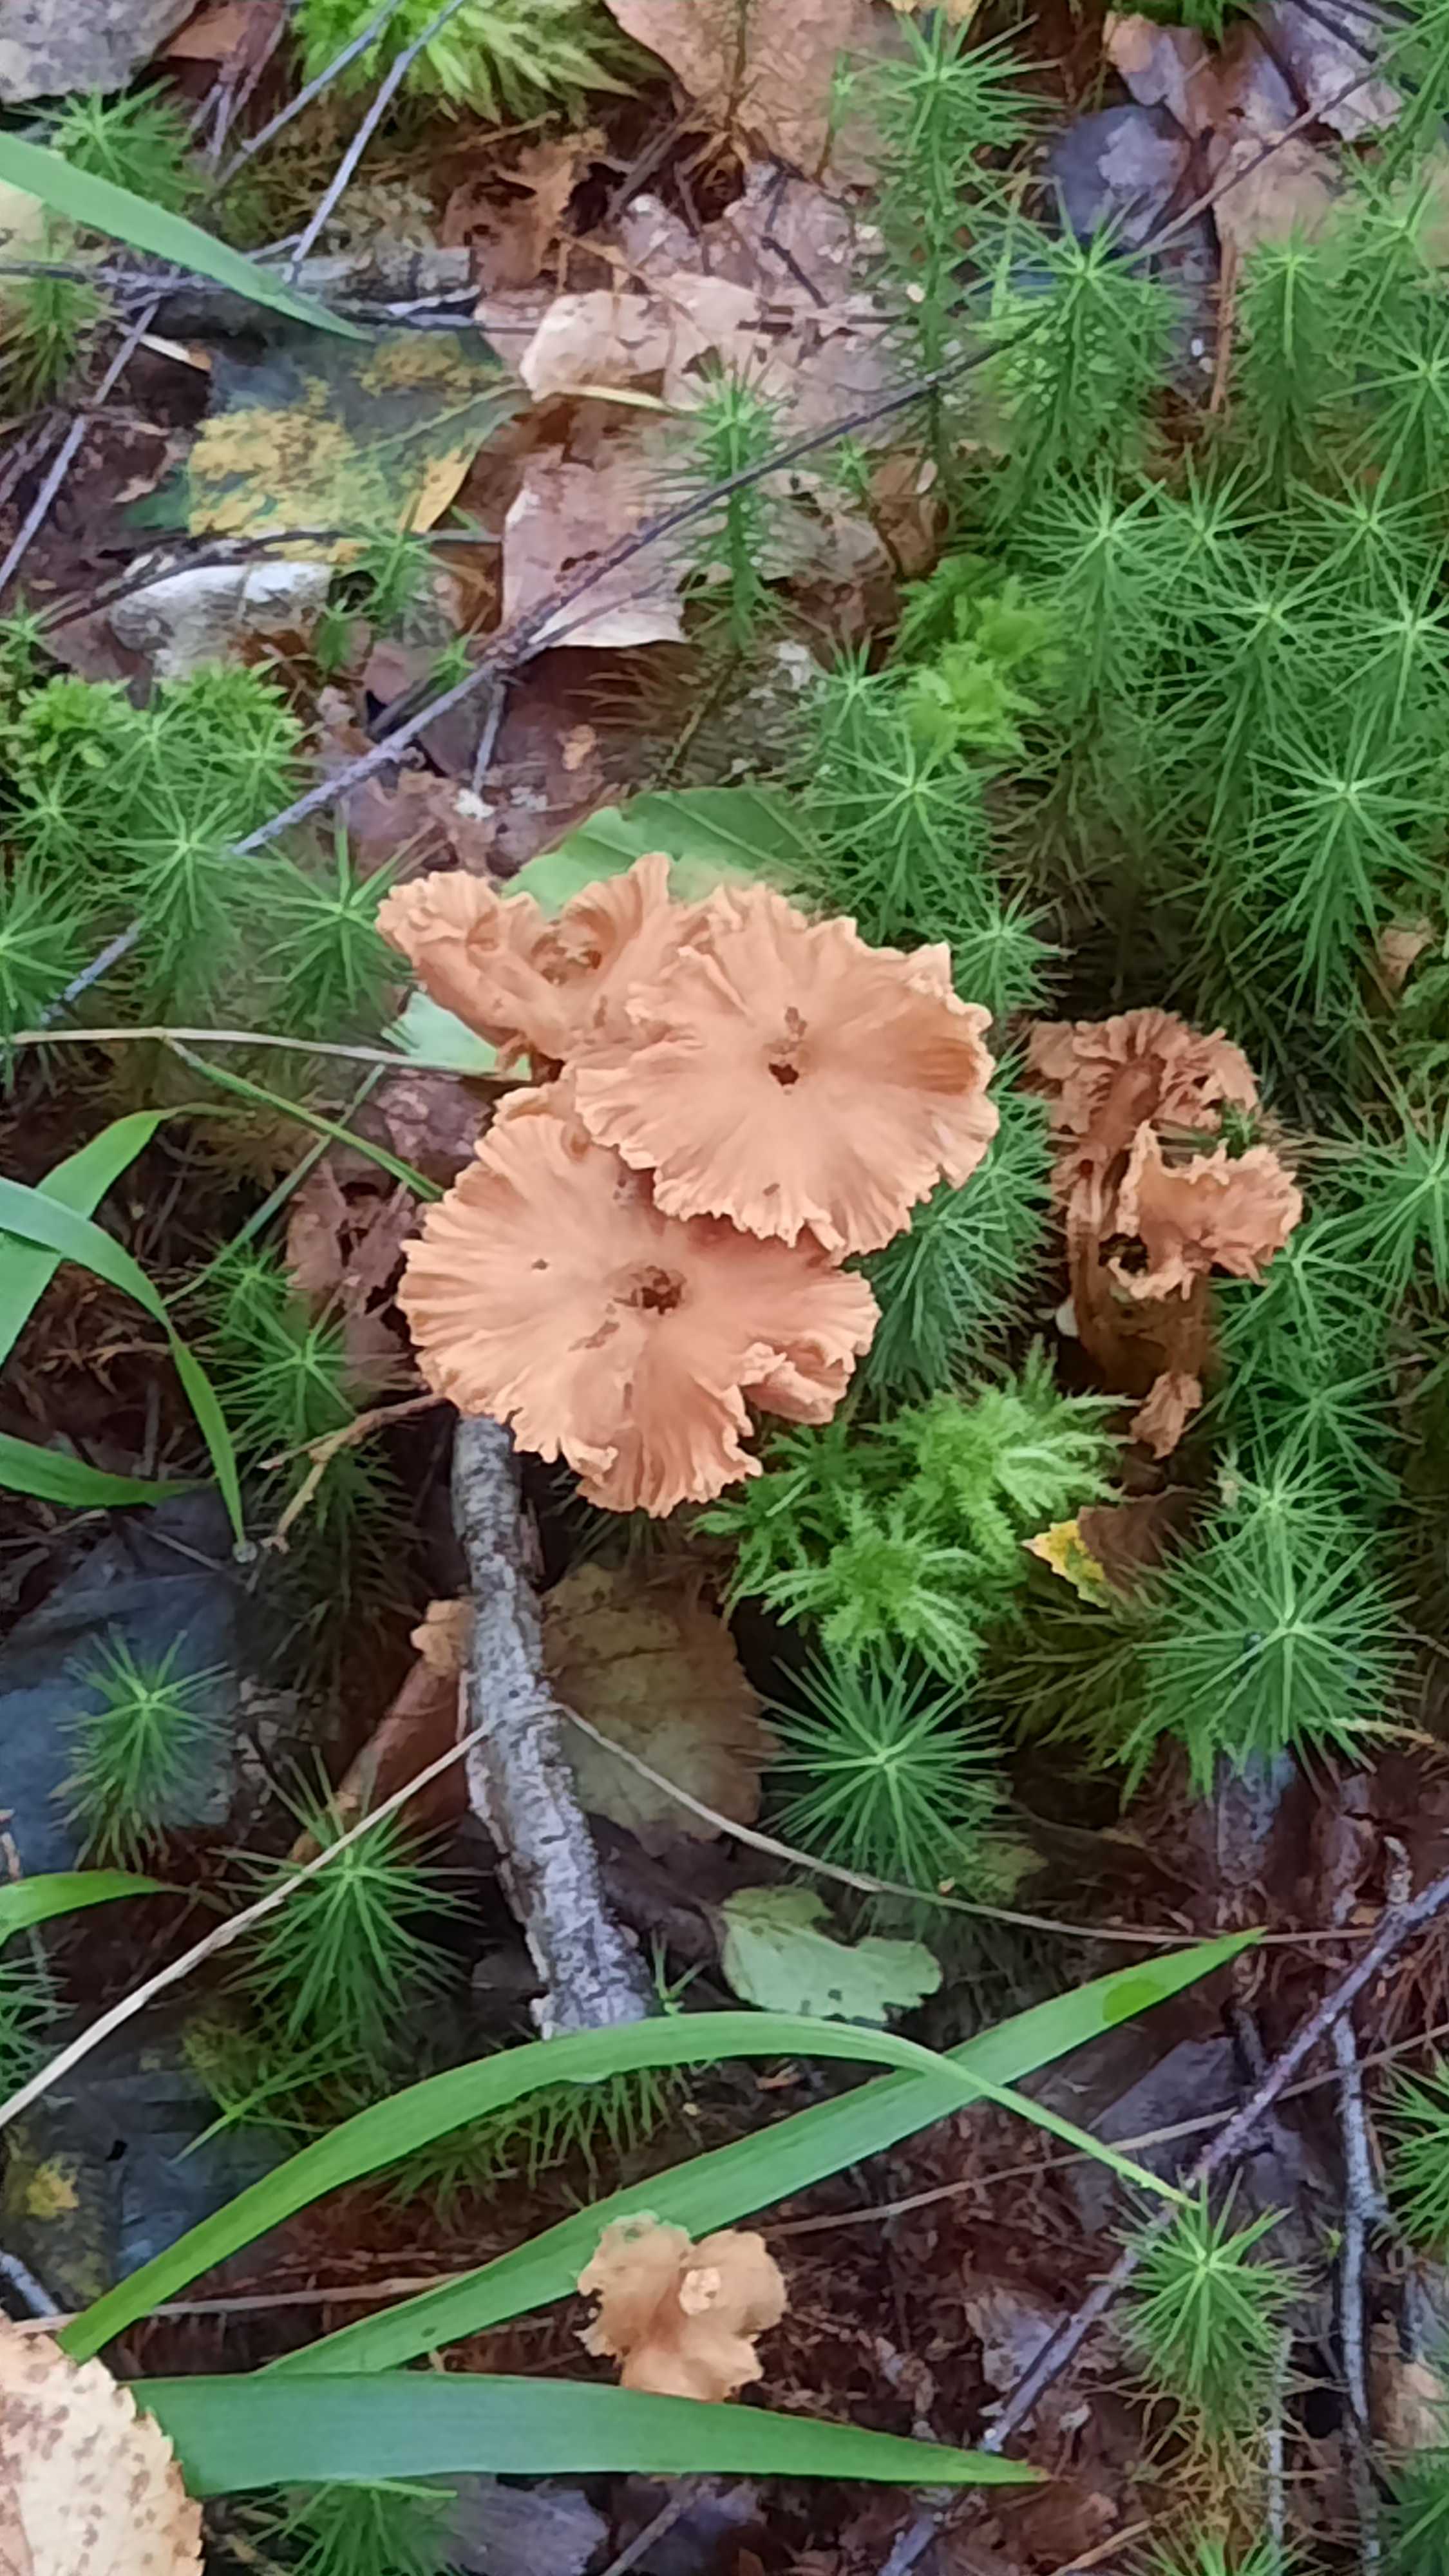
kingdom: Fungi
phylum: Basidiomycota
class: Agaricomycetes
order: Agaricales
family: Hydnangiaceae
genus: Laccaria
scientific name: Laccaria laccata
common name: rød ametysthat
